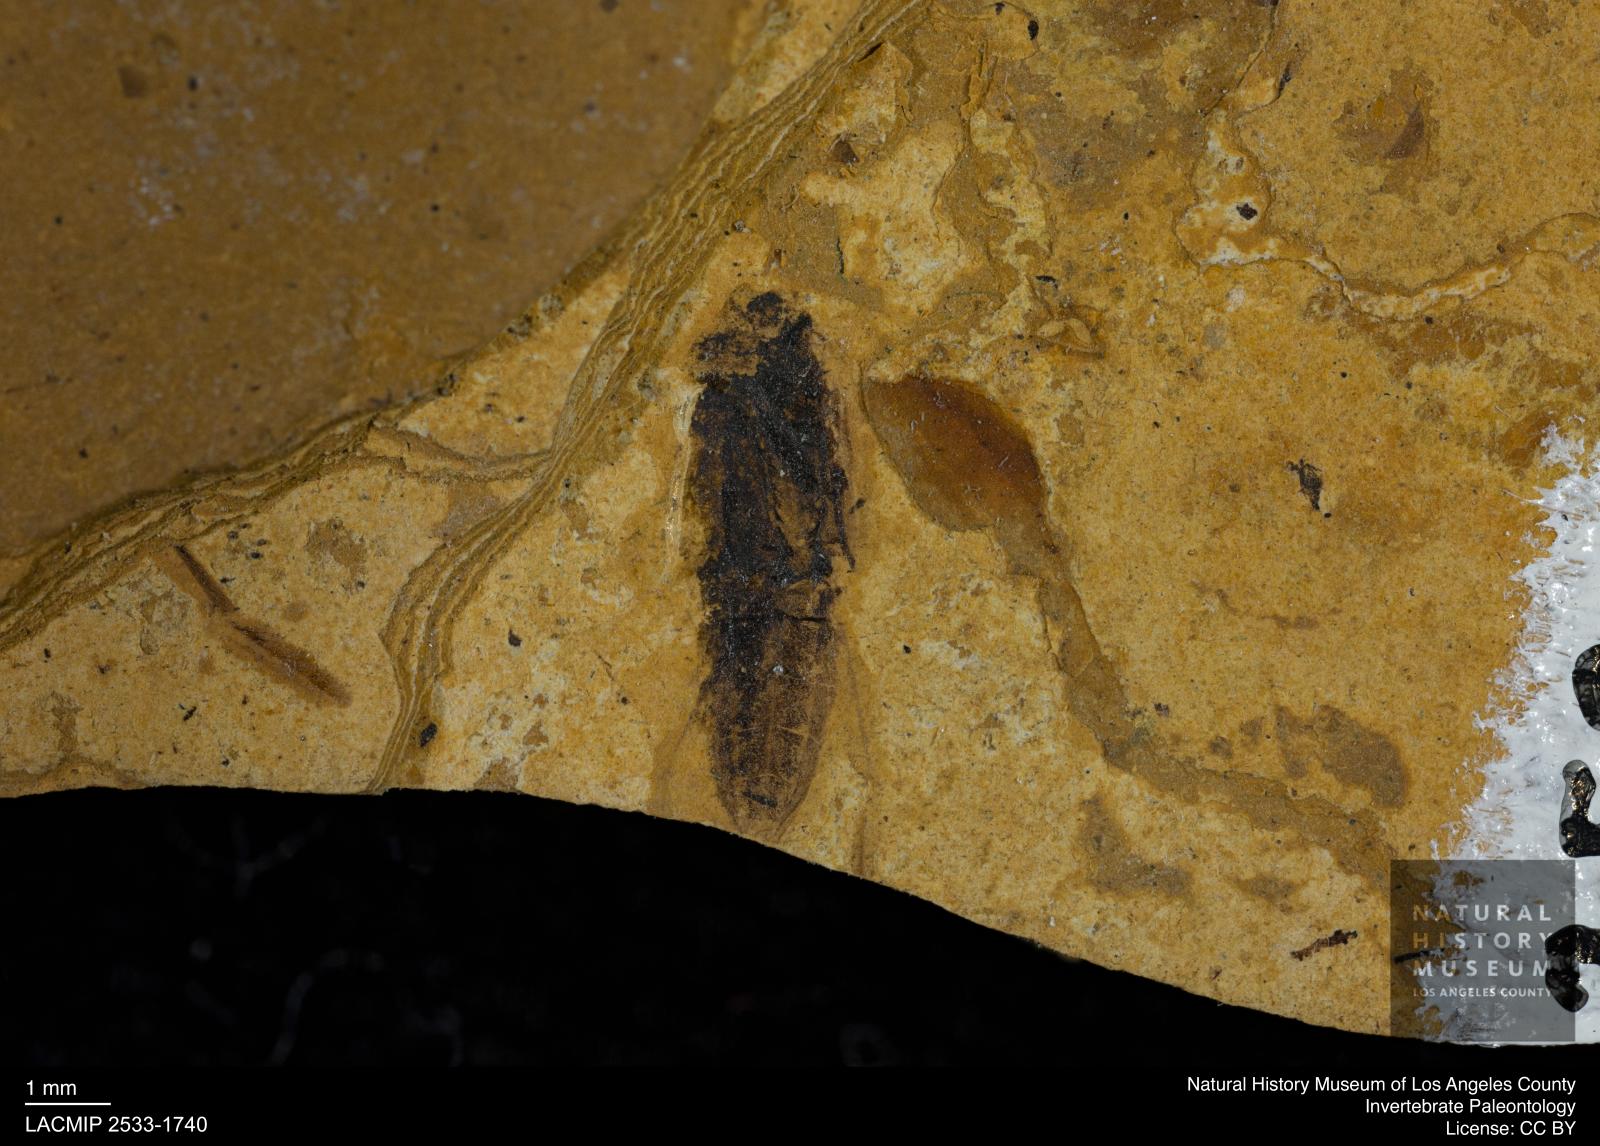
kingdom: Animalia
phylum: Arthropoda
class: Insecta
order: Hemiptera
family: Notonectidae
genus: Notonecta
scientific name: Notonecta
